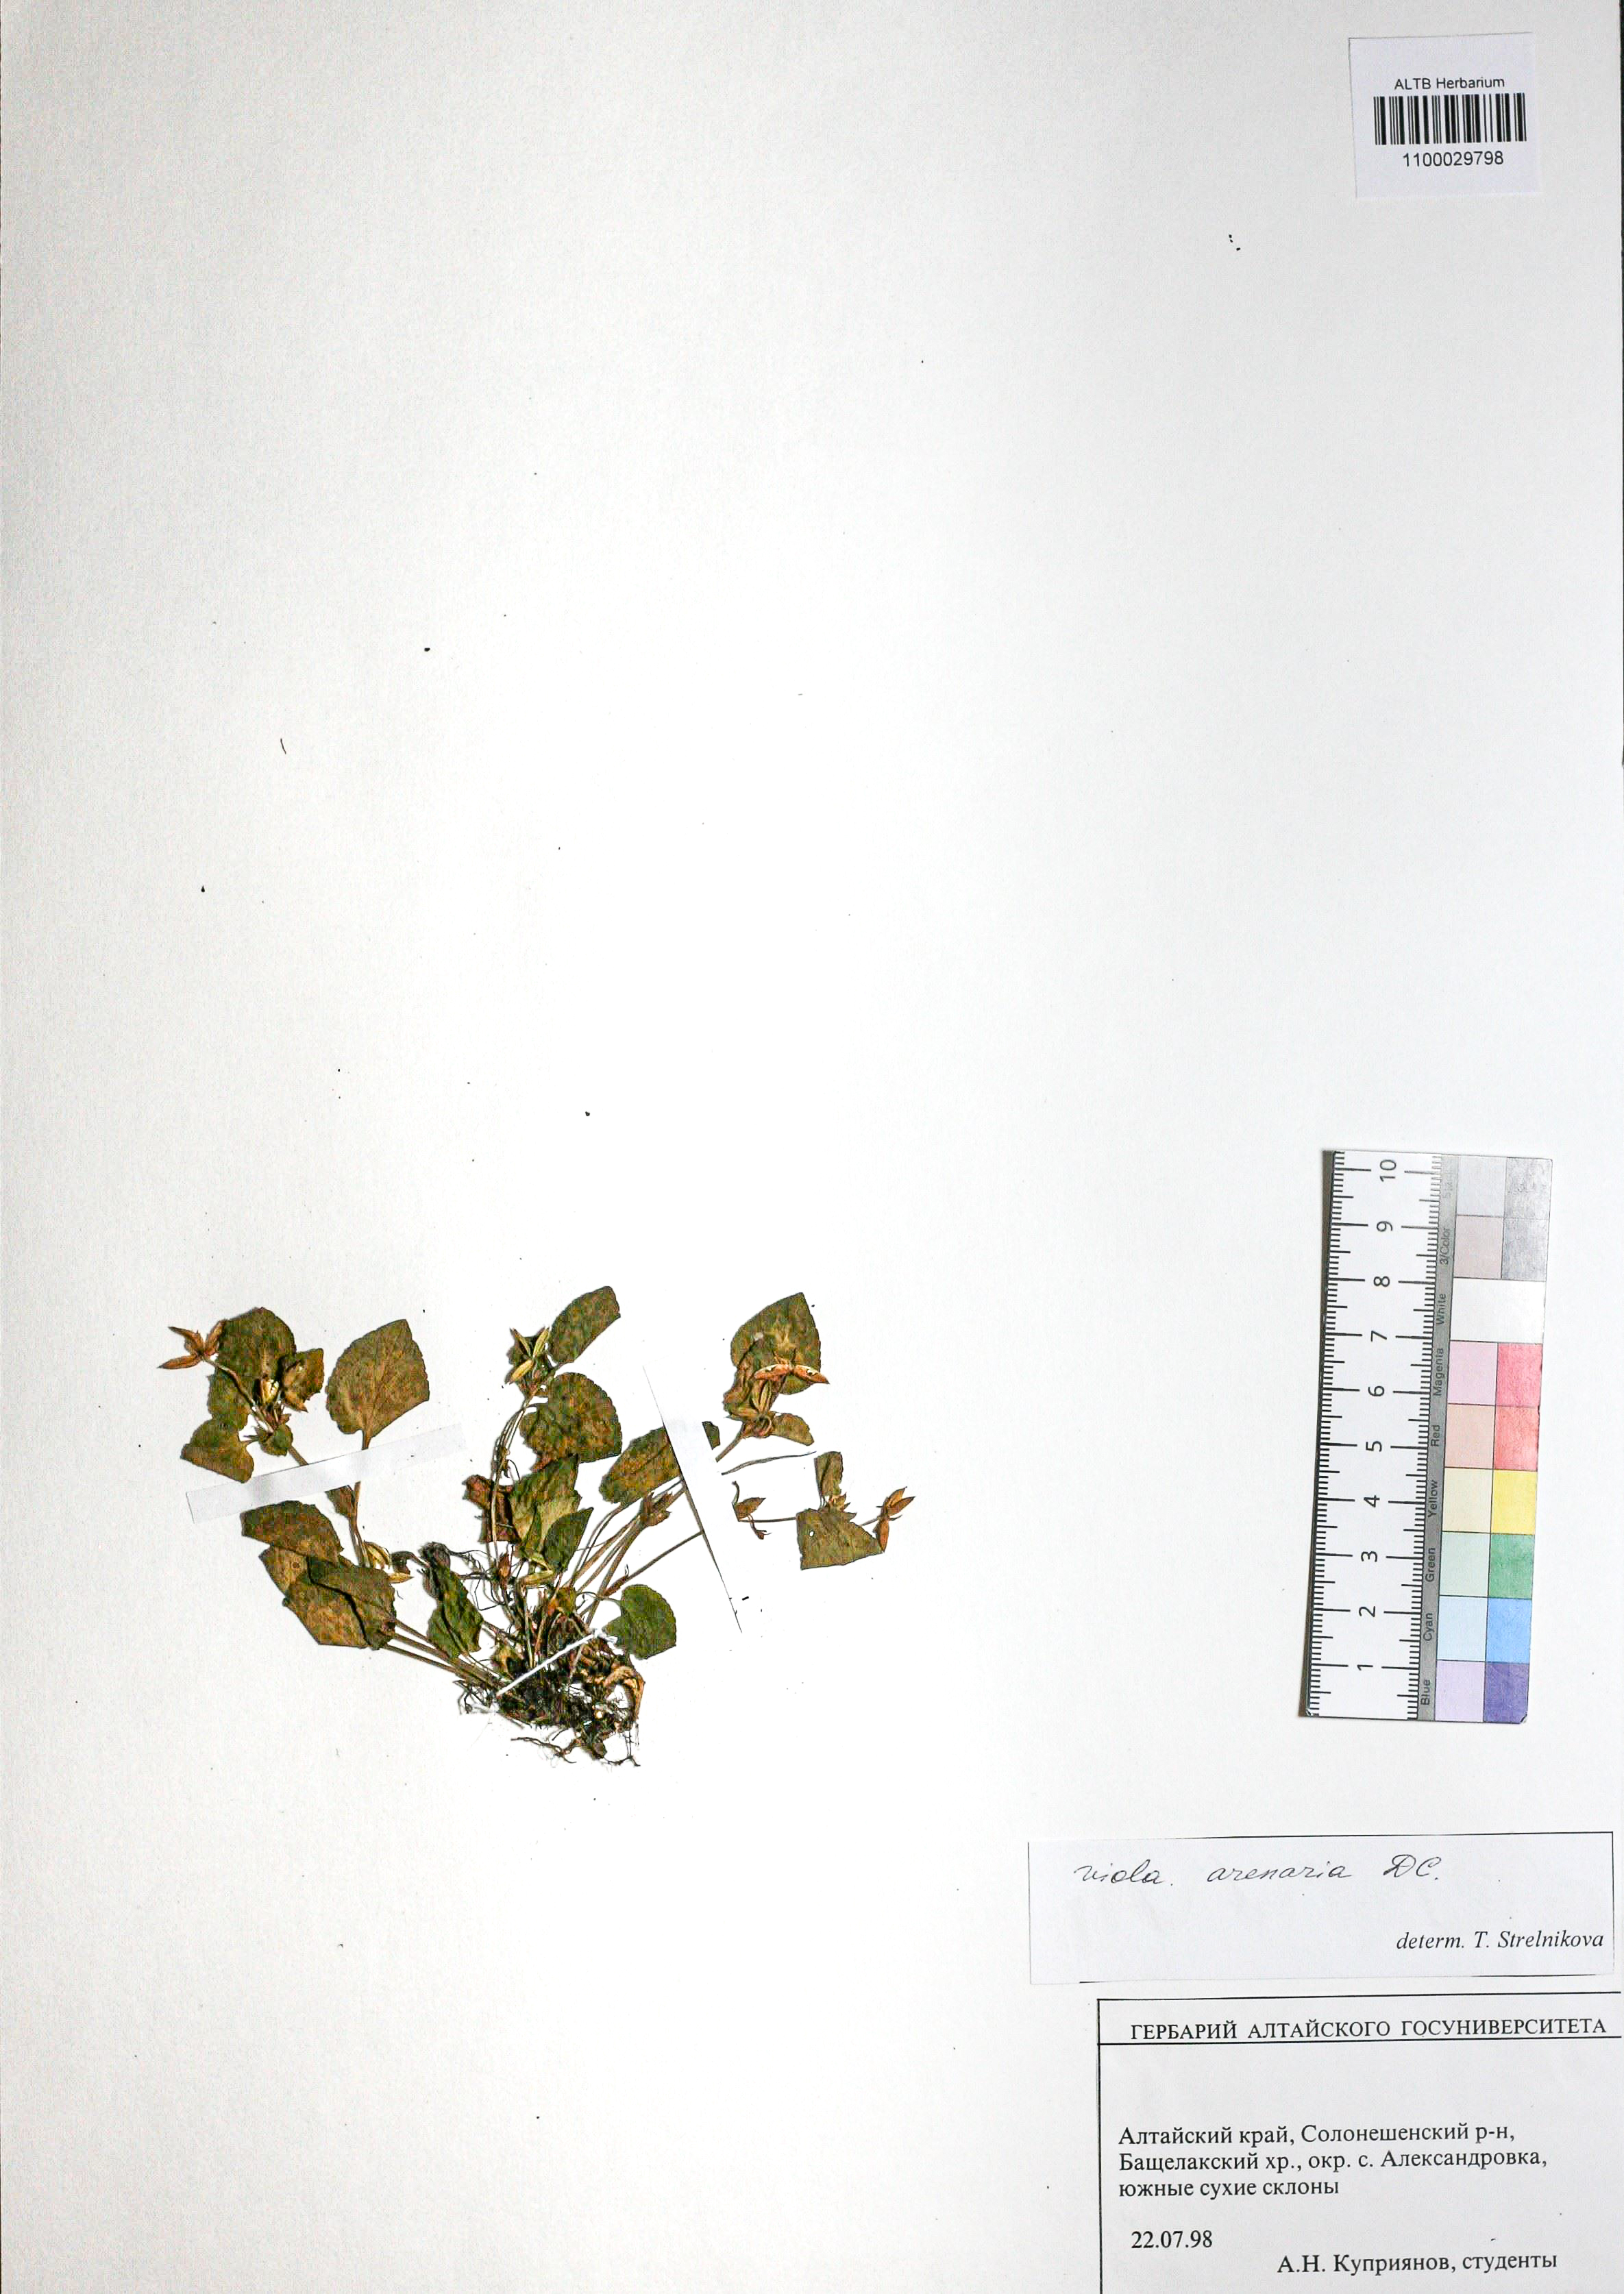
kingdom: Plantae
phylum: Tracheophyta
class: Magnoliopsida
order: Malpighiales
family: Violaceae
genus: Viola
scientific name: Viola rupestris
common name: Teesdale violet
